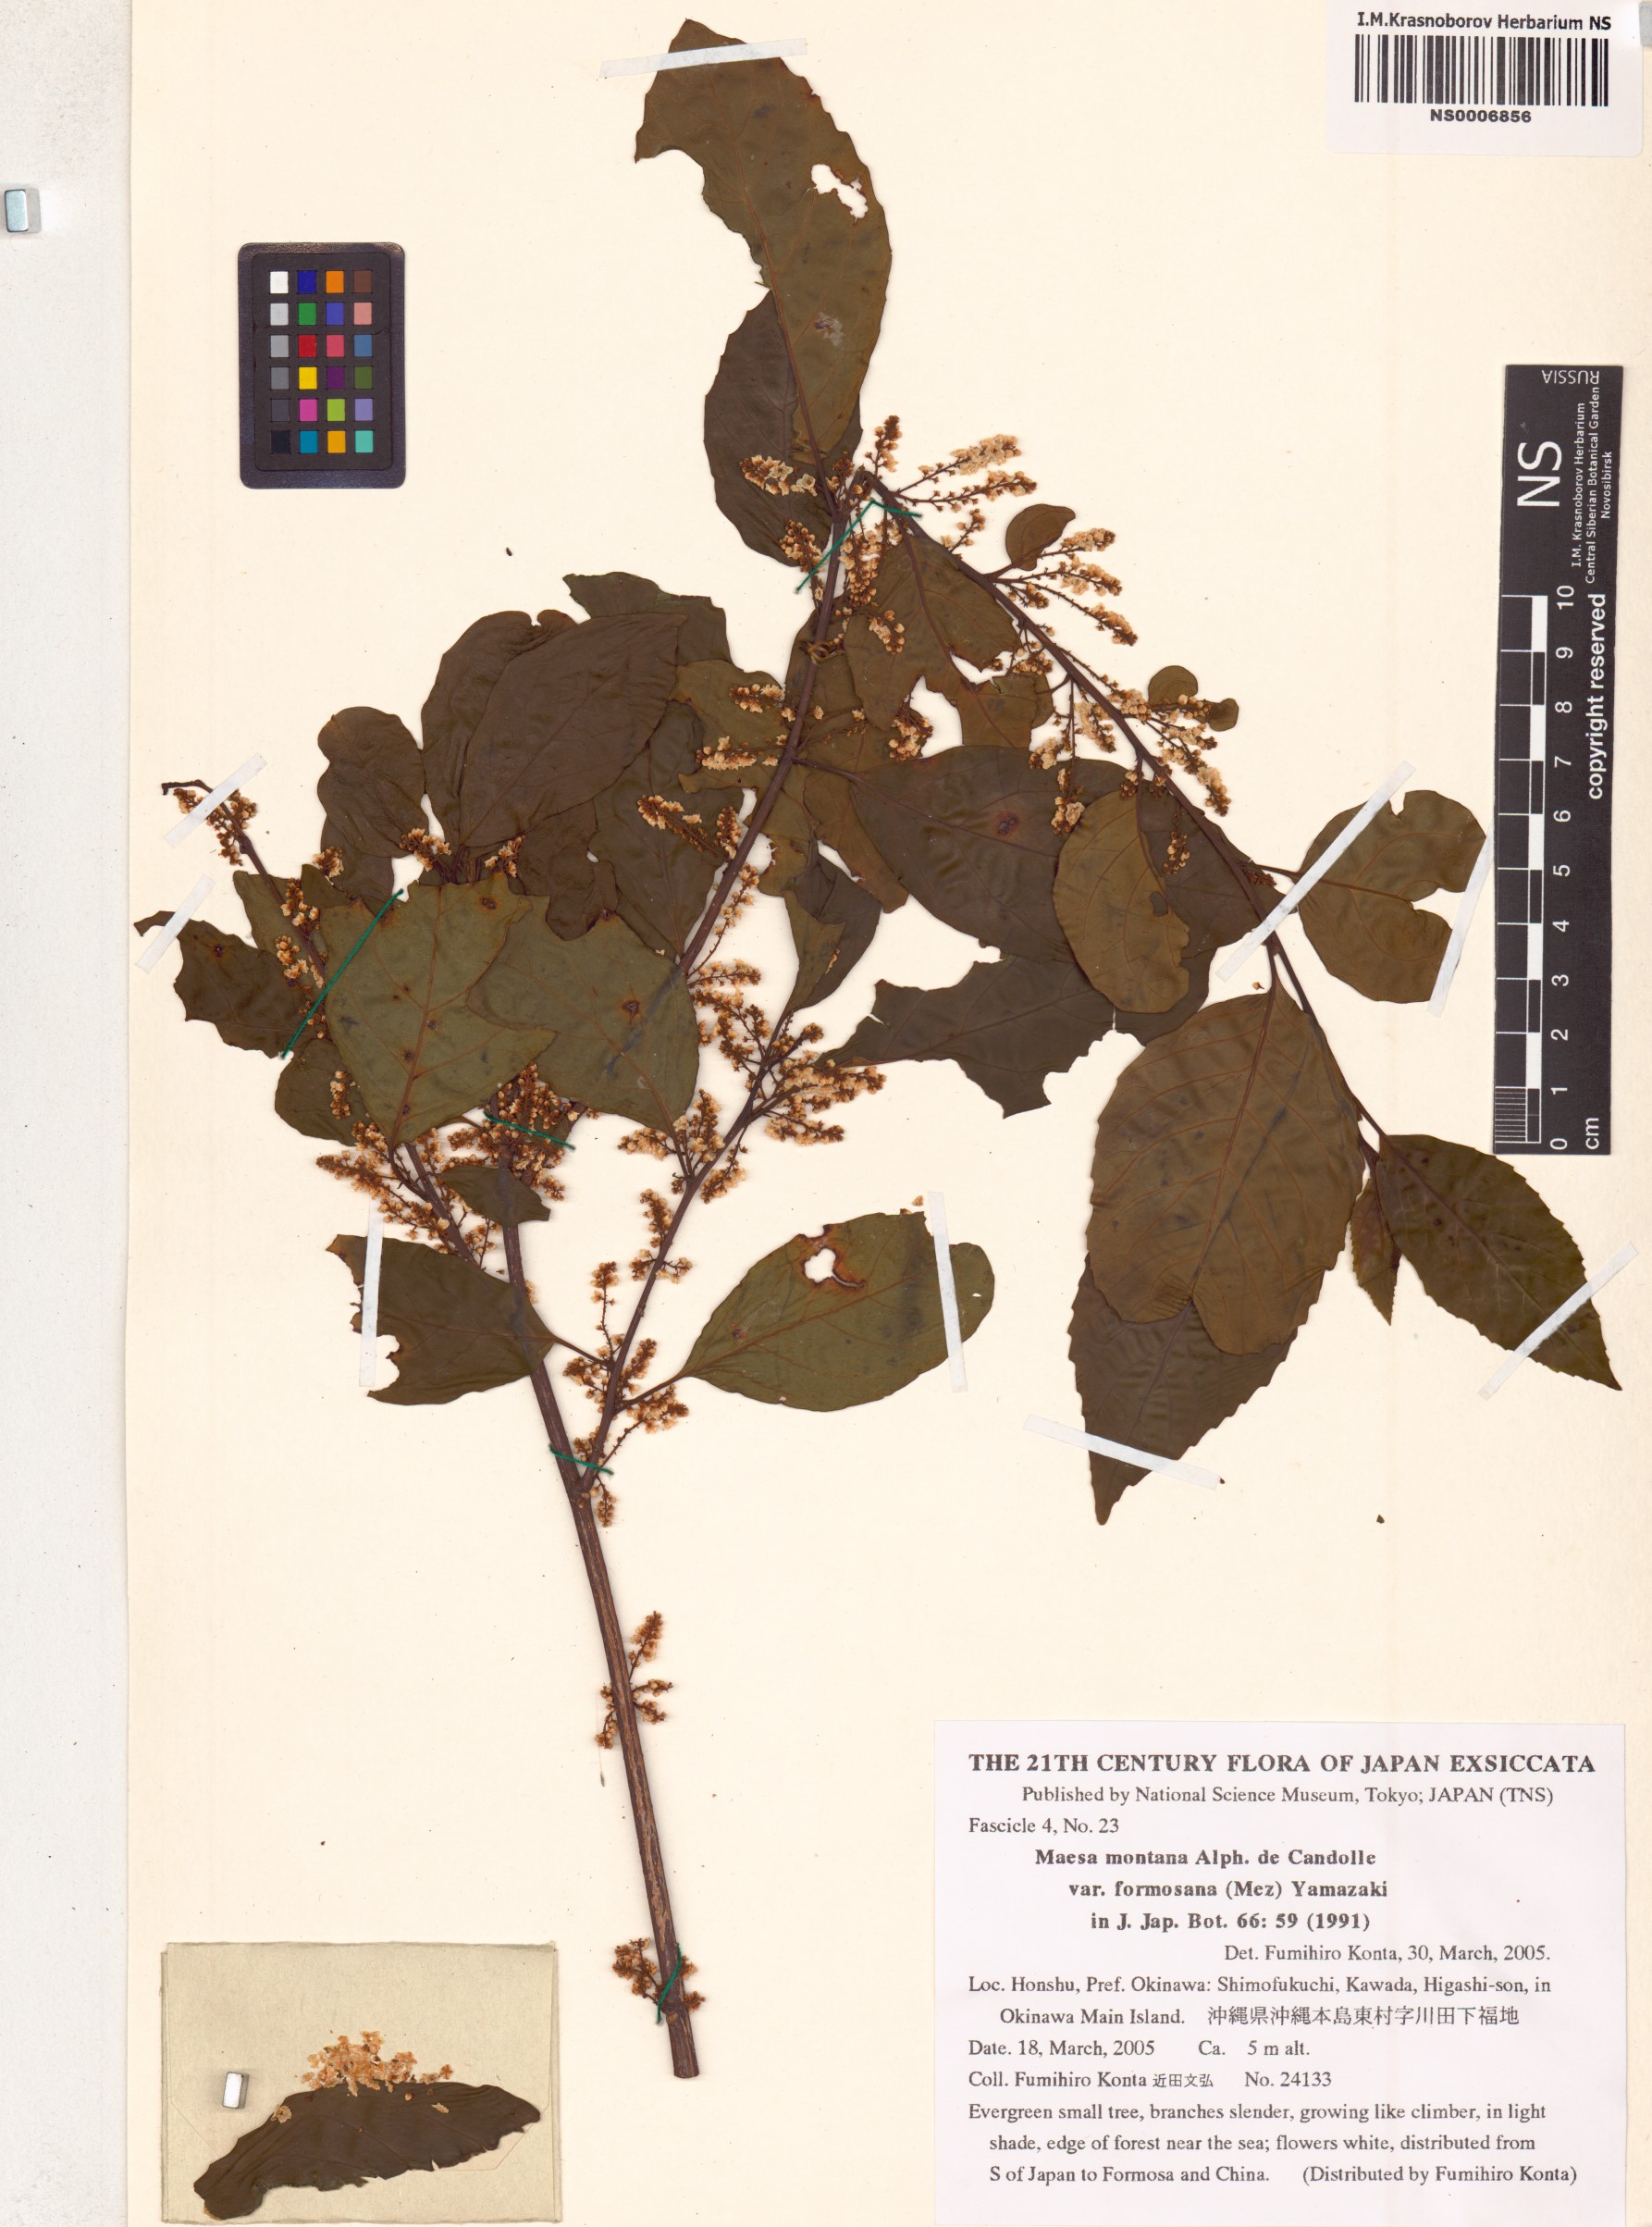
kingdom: Plantae
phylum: Tracheophyta
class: Magnoliopsida
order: Ericales
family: Primulaceae
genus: Maesa
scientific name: Maesa perlaria
